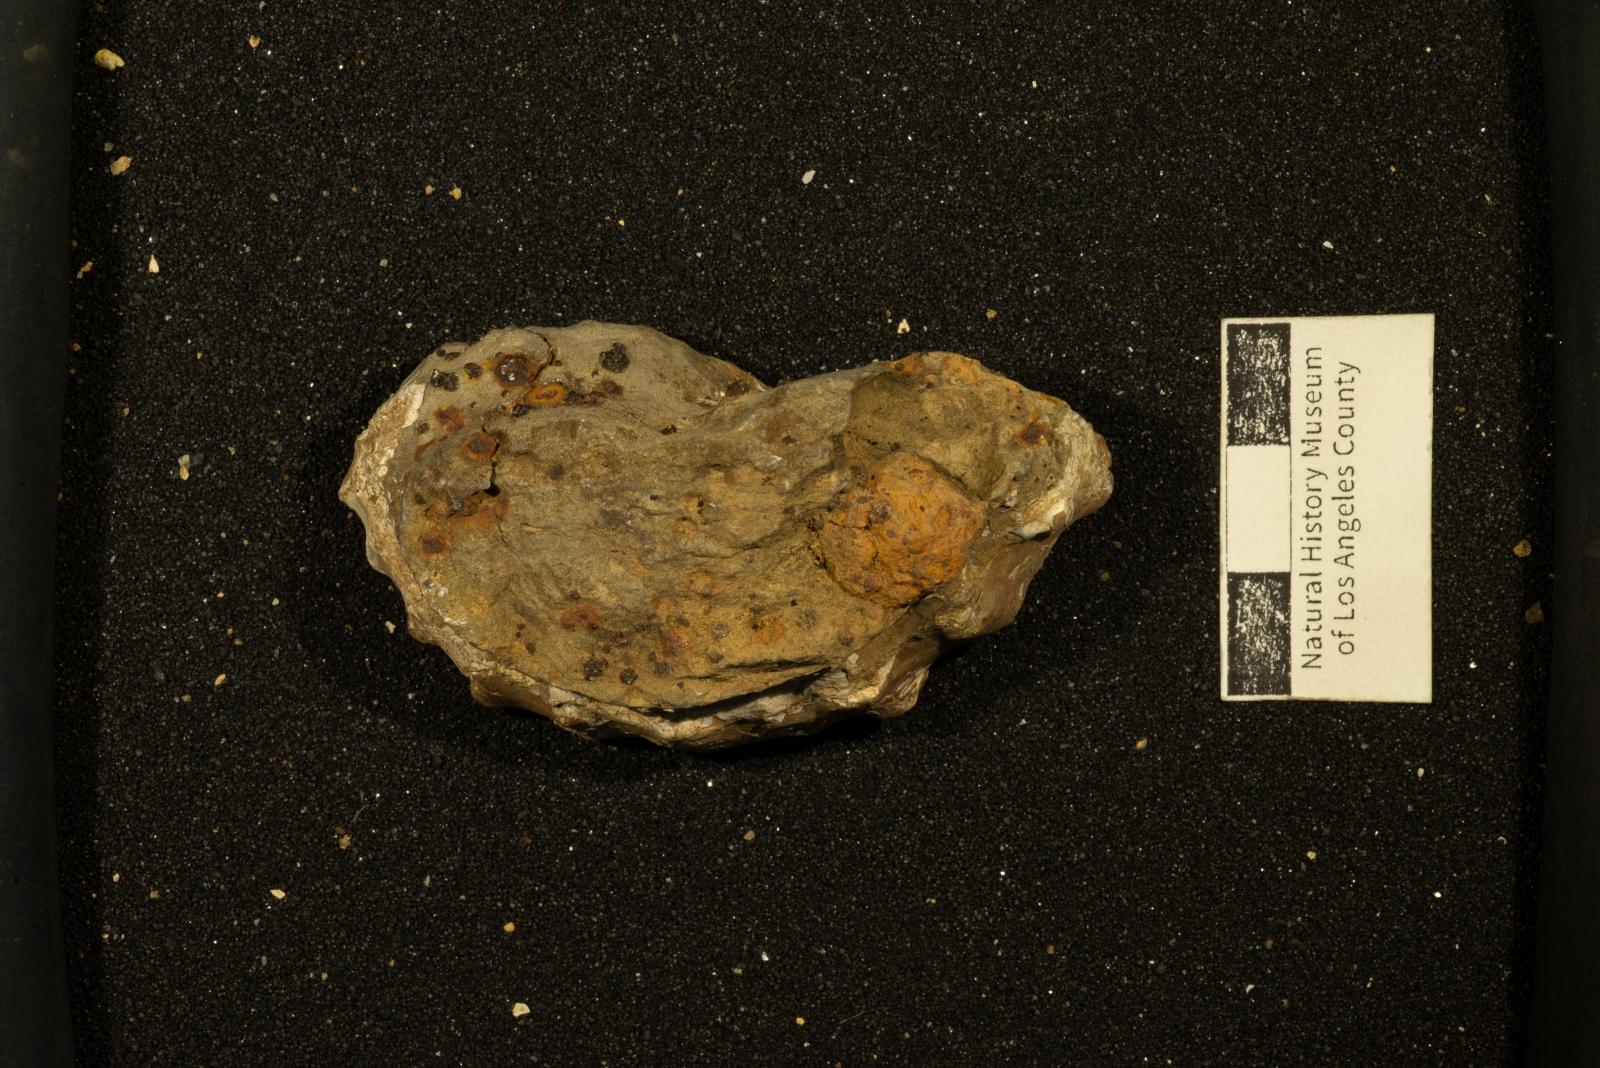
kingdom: Animalia
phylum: Mollusca
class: Cephalopoda
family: Acanthoceratidae
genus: Romaniceras
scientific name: Romaniceras
